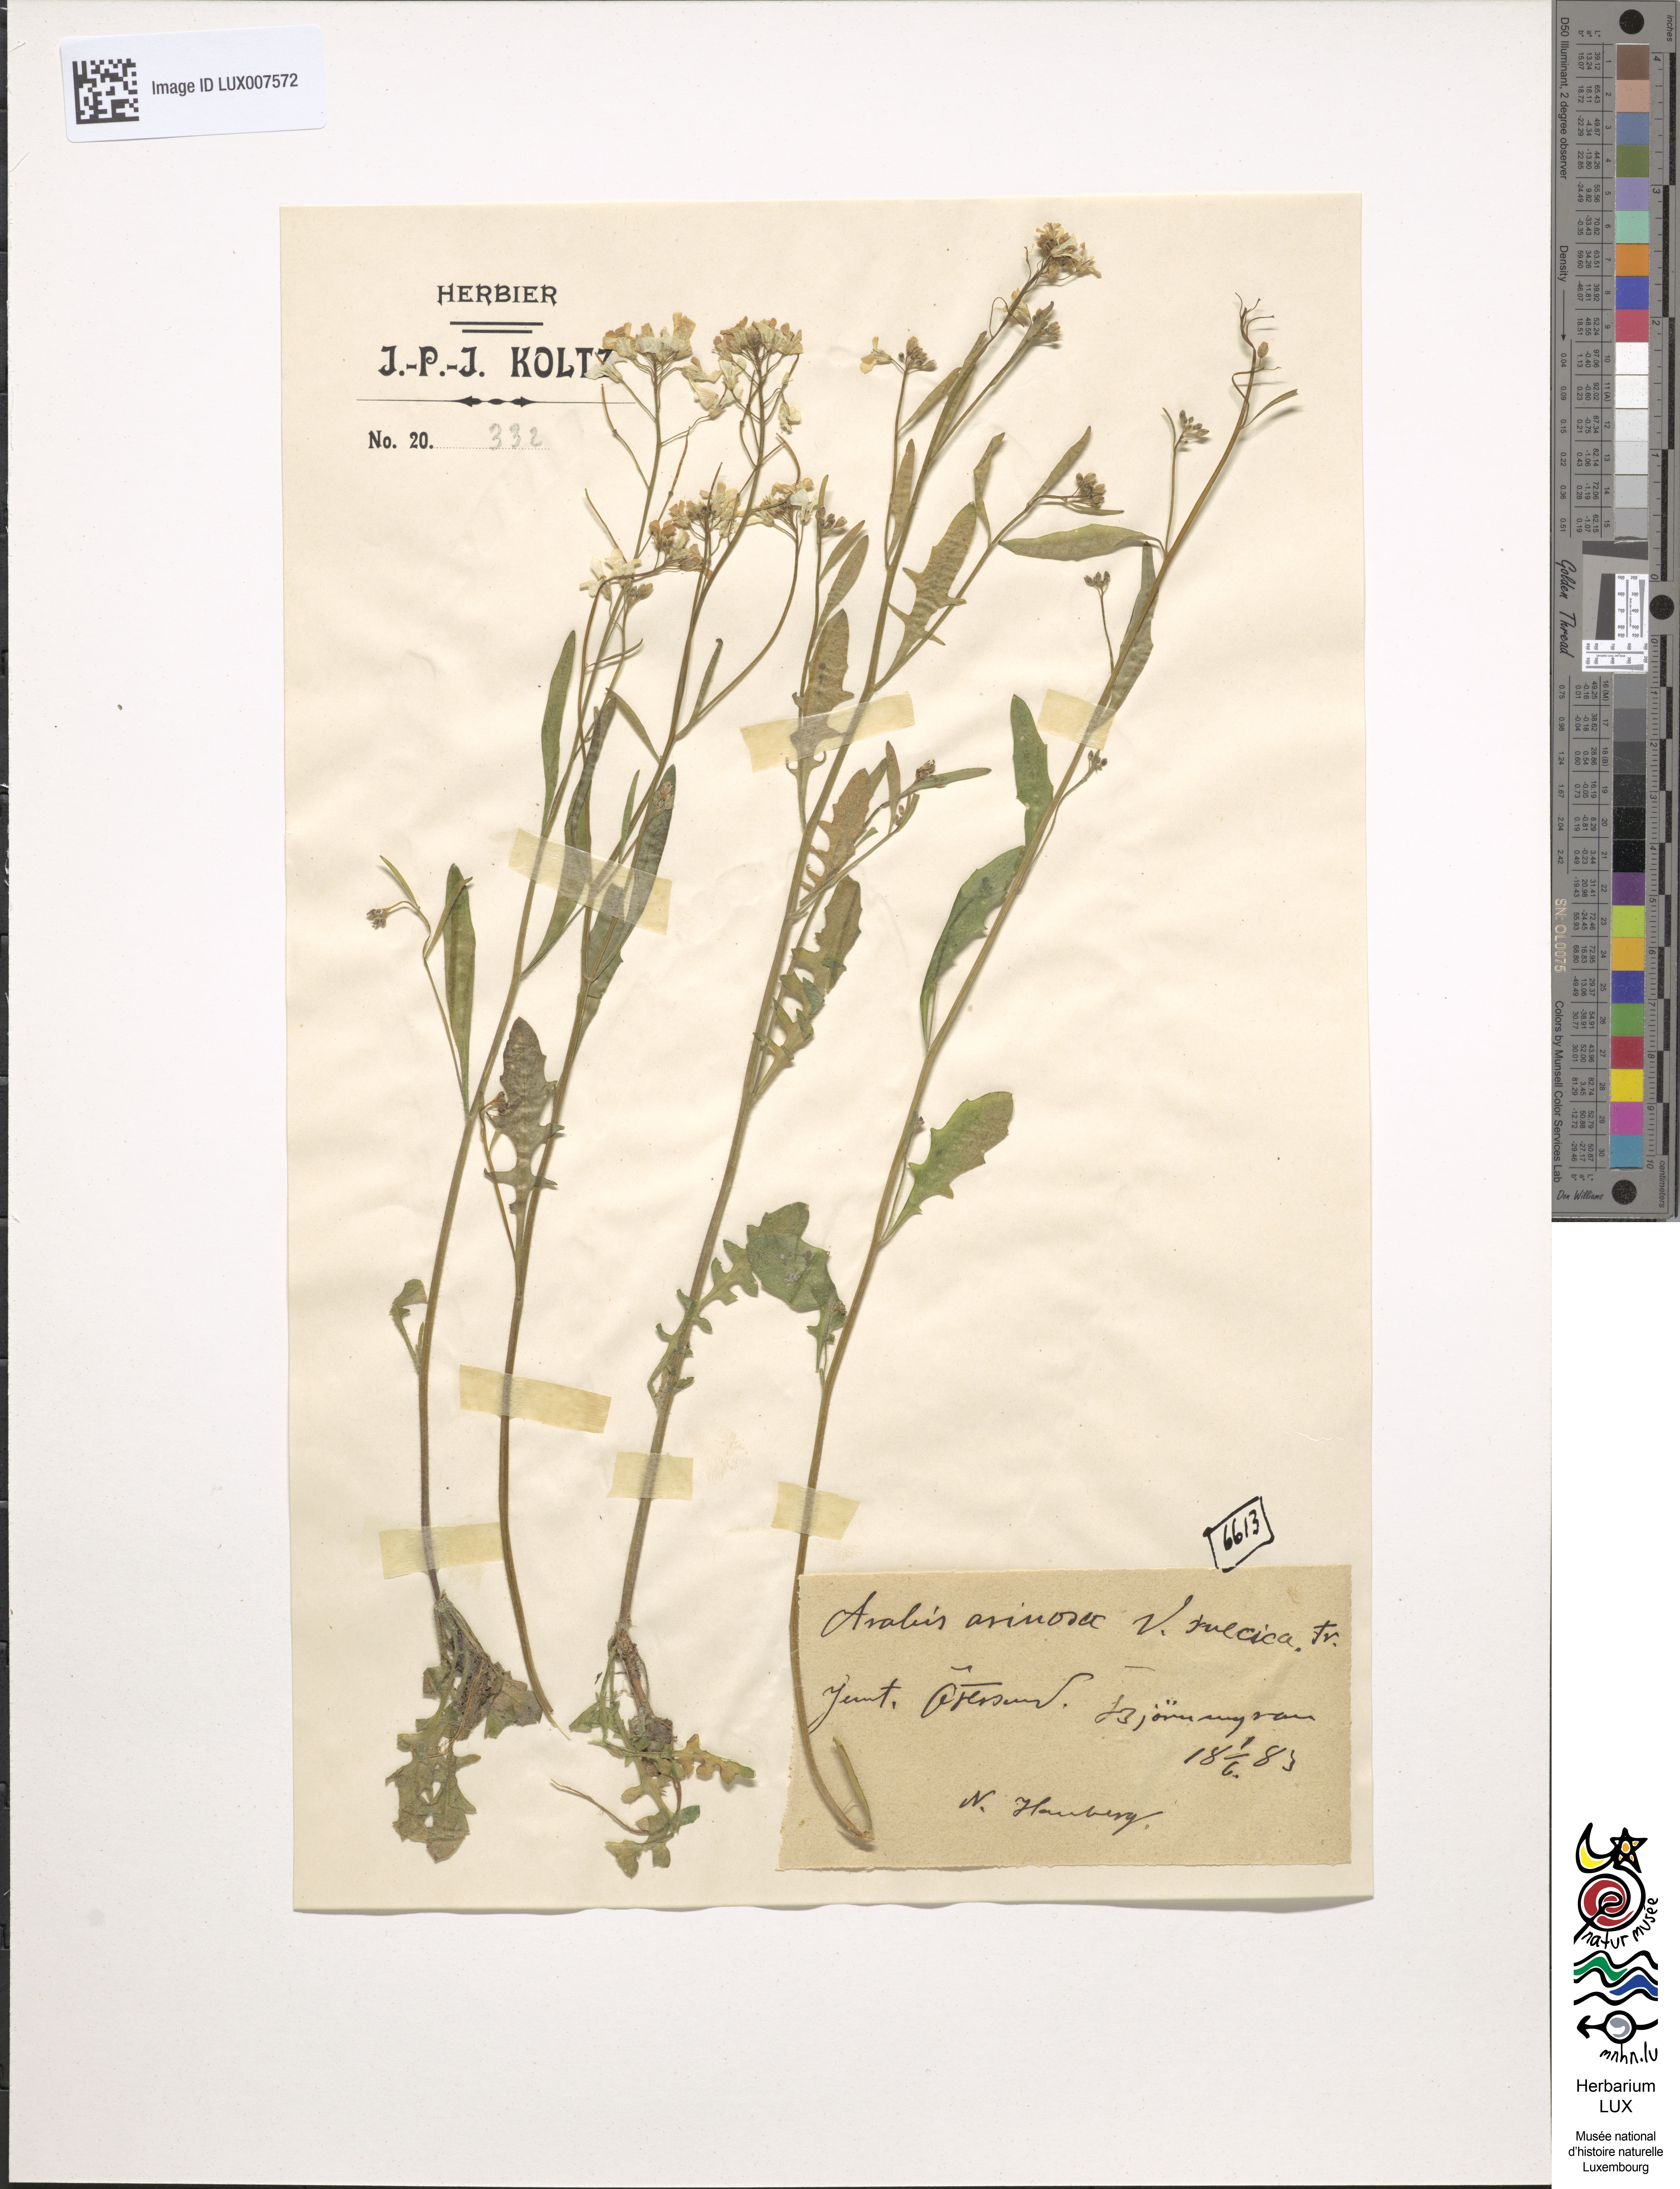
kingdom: Plantae
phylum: Tracheophyta
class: Magnoliopsida
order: Brassicales
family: Brassicaceae
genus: Arabidopsis
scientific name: Arabidopsis arenosa
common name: Sand rock-cress
